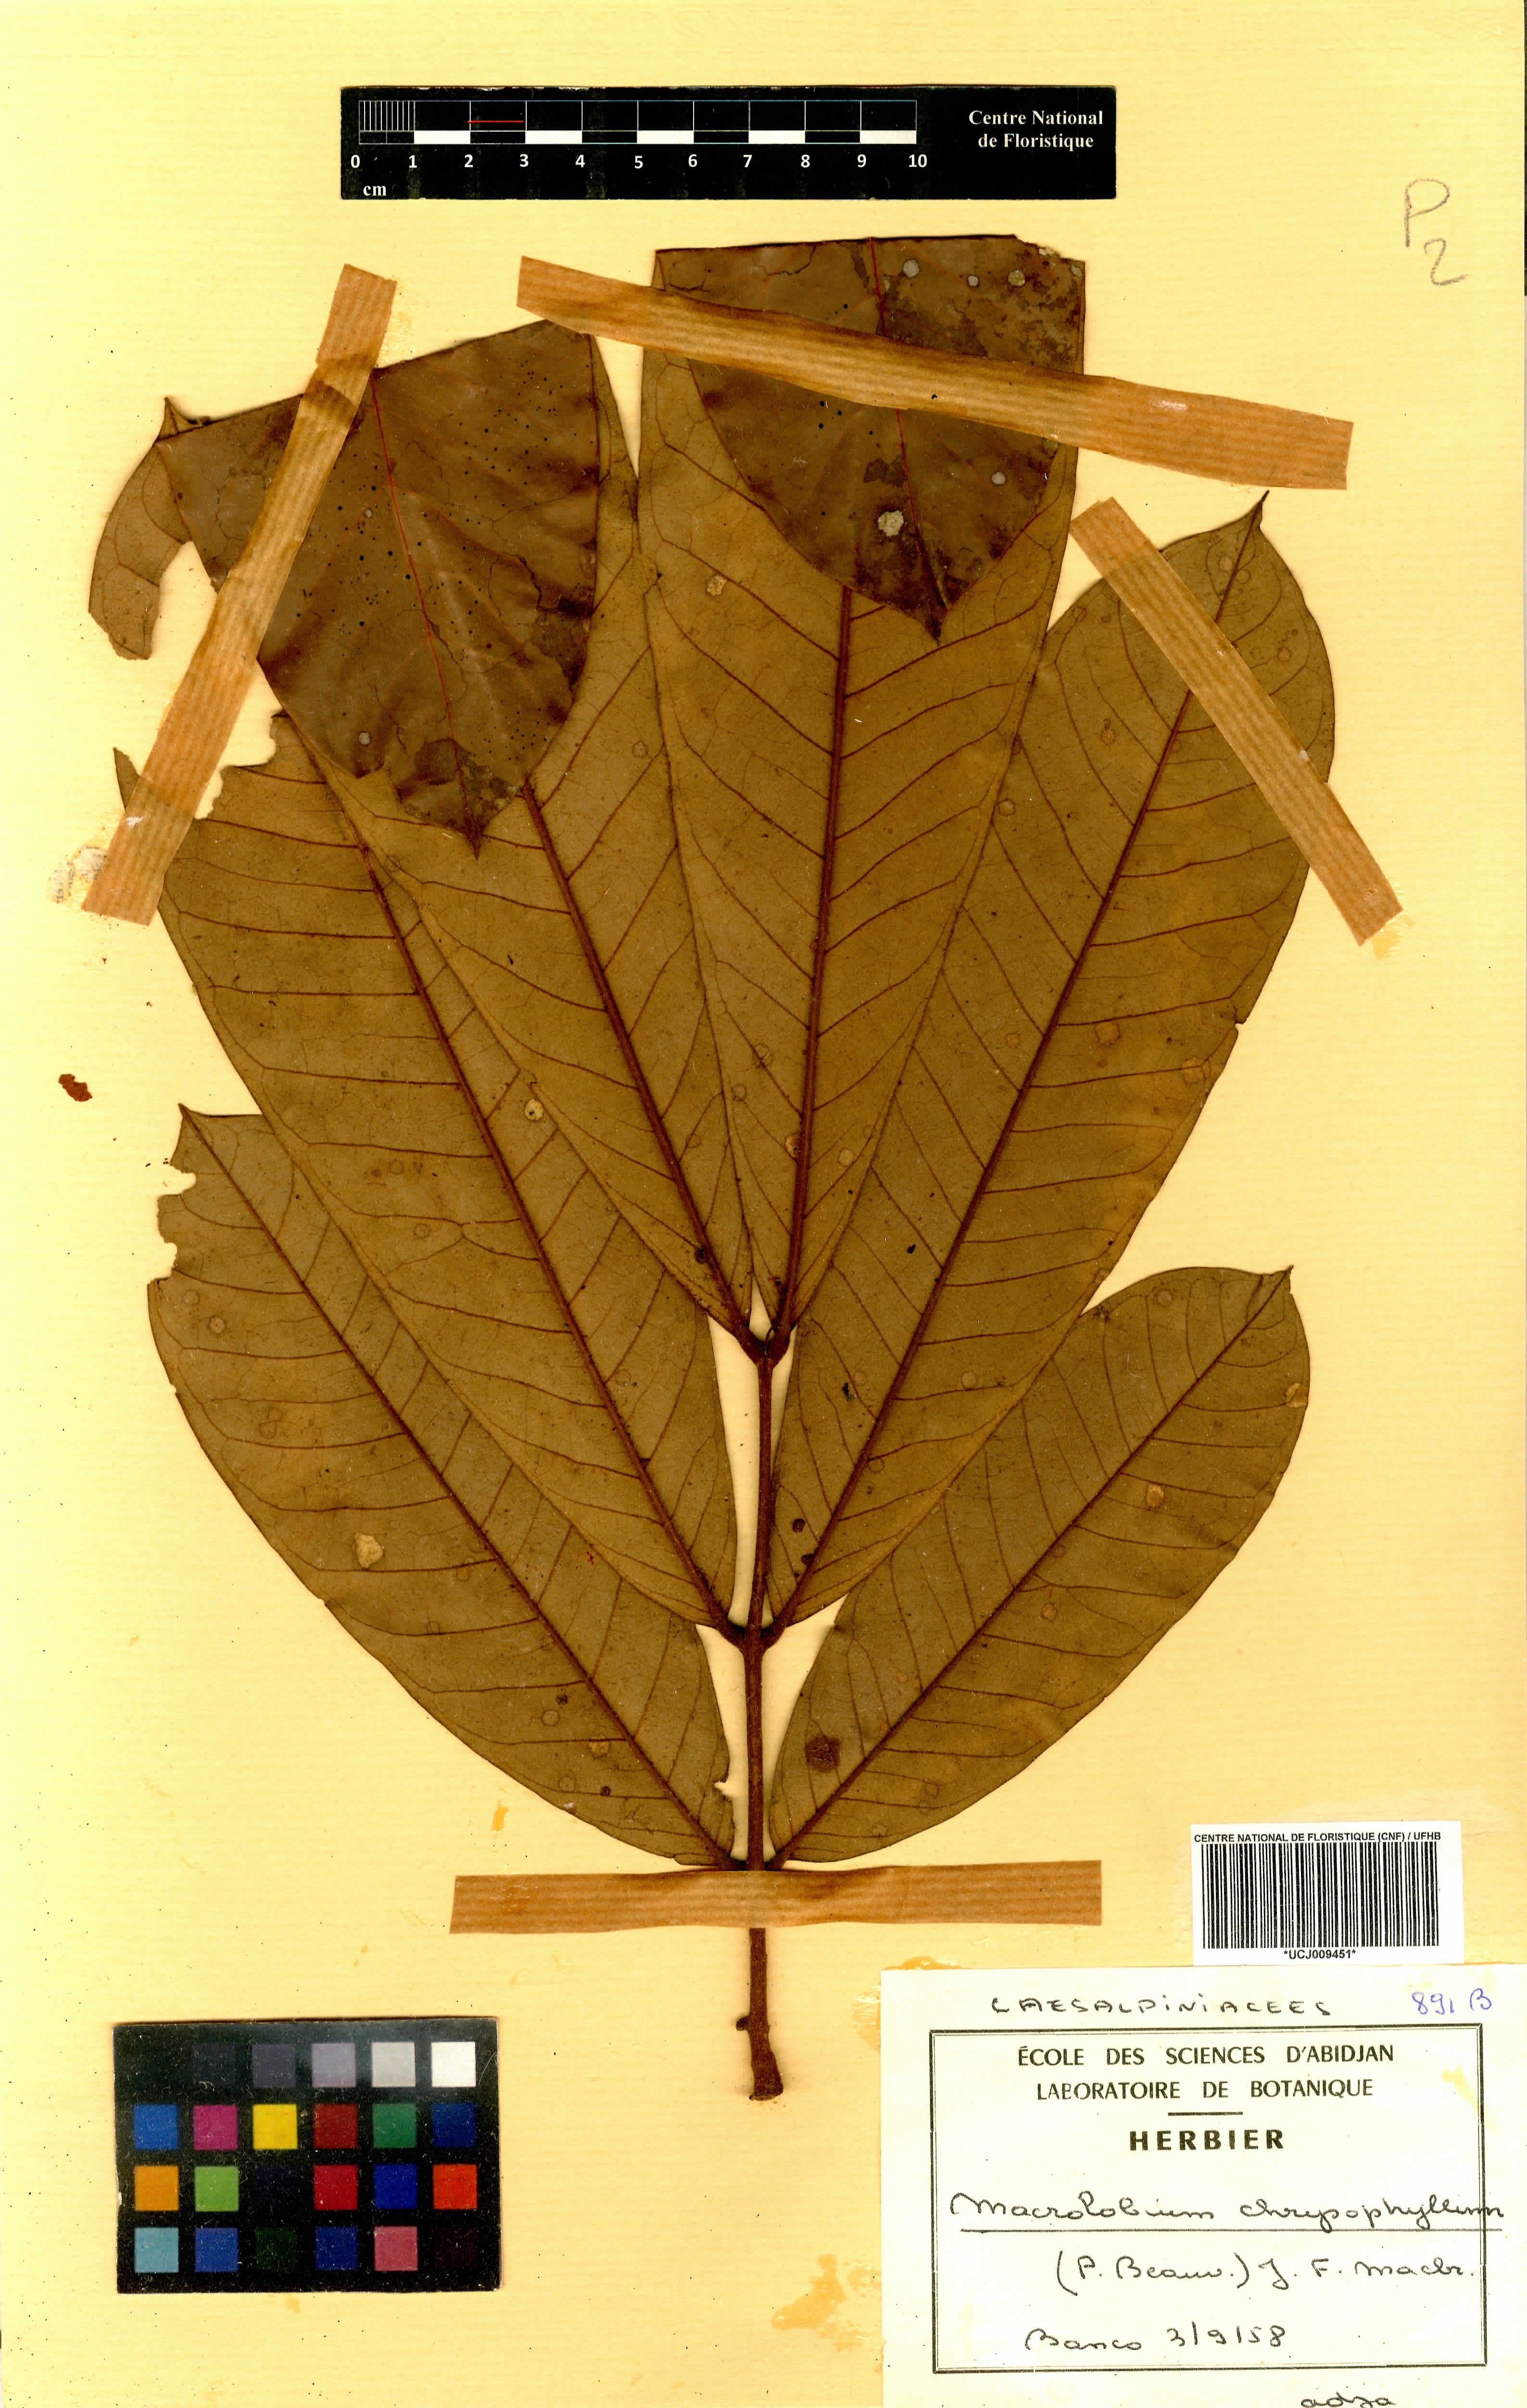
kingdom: Plantae
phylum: Tracheophyta
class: Magnoliopsida
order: Fabales
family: Fabaceae
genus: Macrolobium
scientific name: Macrolobium
